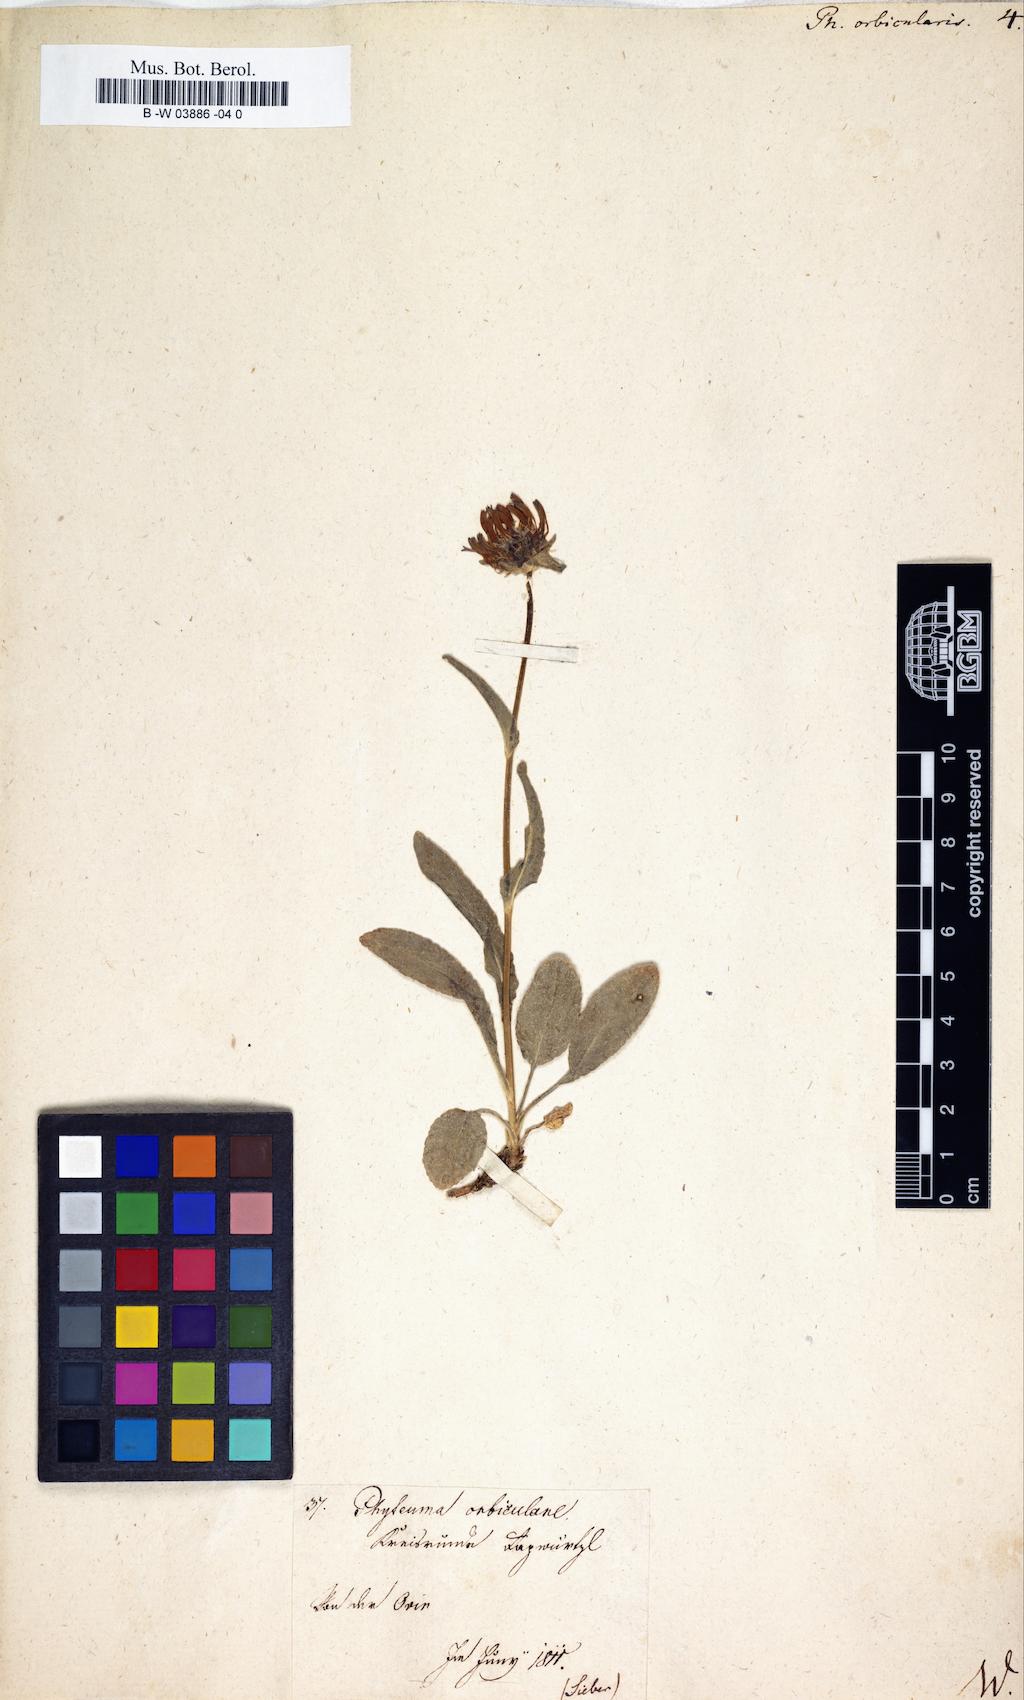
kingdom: Plantae
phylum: Tracheophyta
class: Magnoliopsida
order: Asterales
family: Campanulaceae
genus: Phyteuma
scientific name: Phyteuma orbiculare
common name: Round-headed rampion
